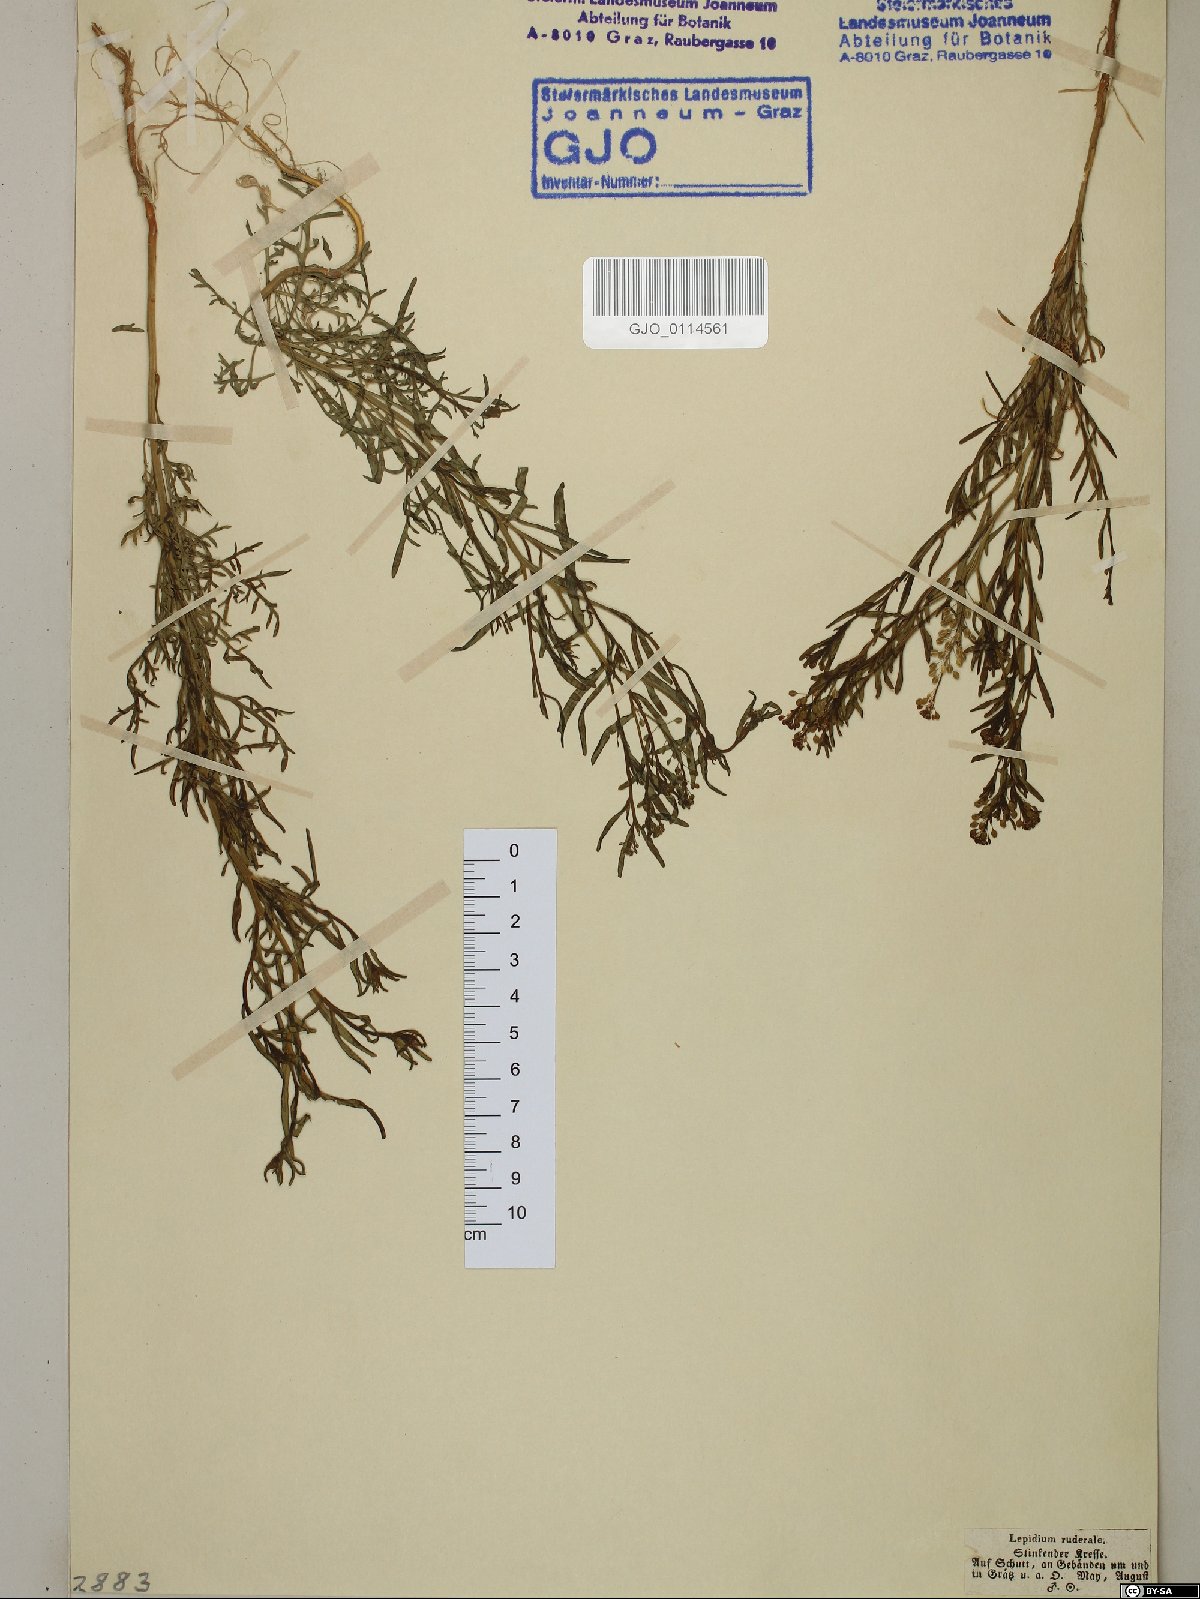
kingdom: Plantae
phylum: Tracheophyta
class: Magnoliopsida
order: Brassicales
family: Brassicaceae
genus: Lepidium
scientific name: Lepidium ruderale
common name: Narrow-leaved pepperwort
